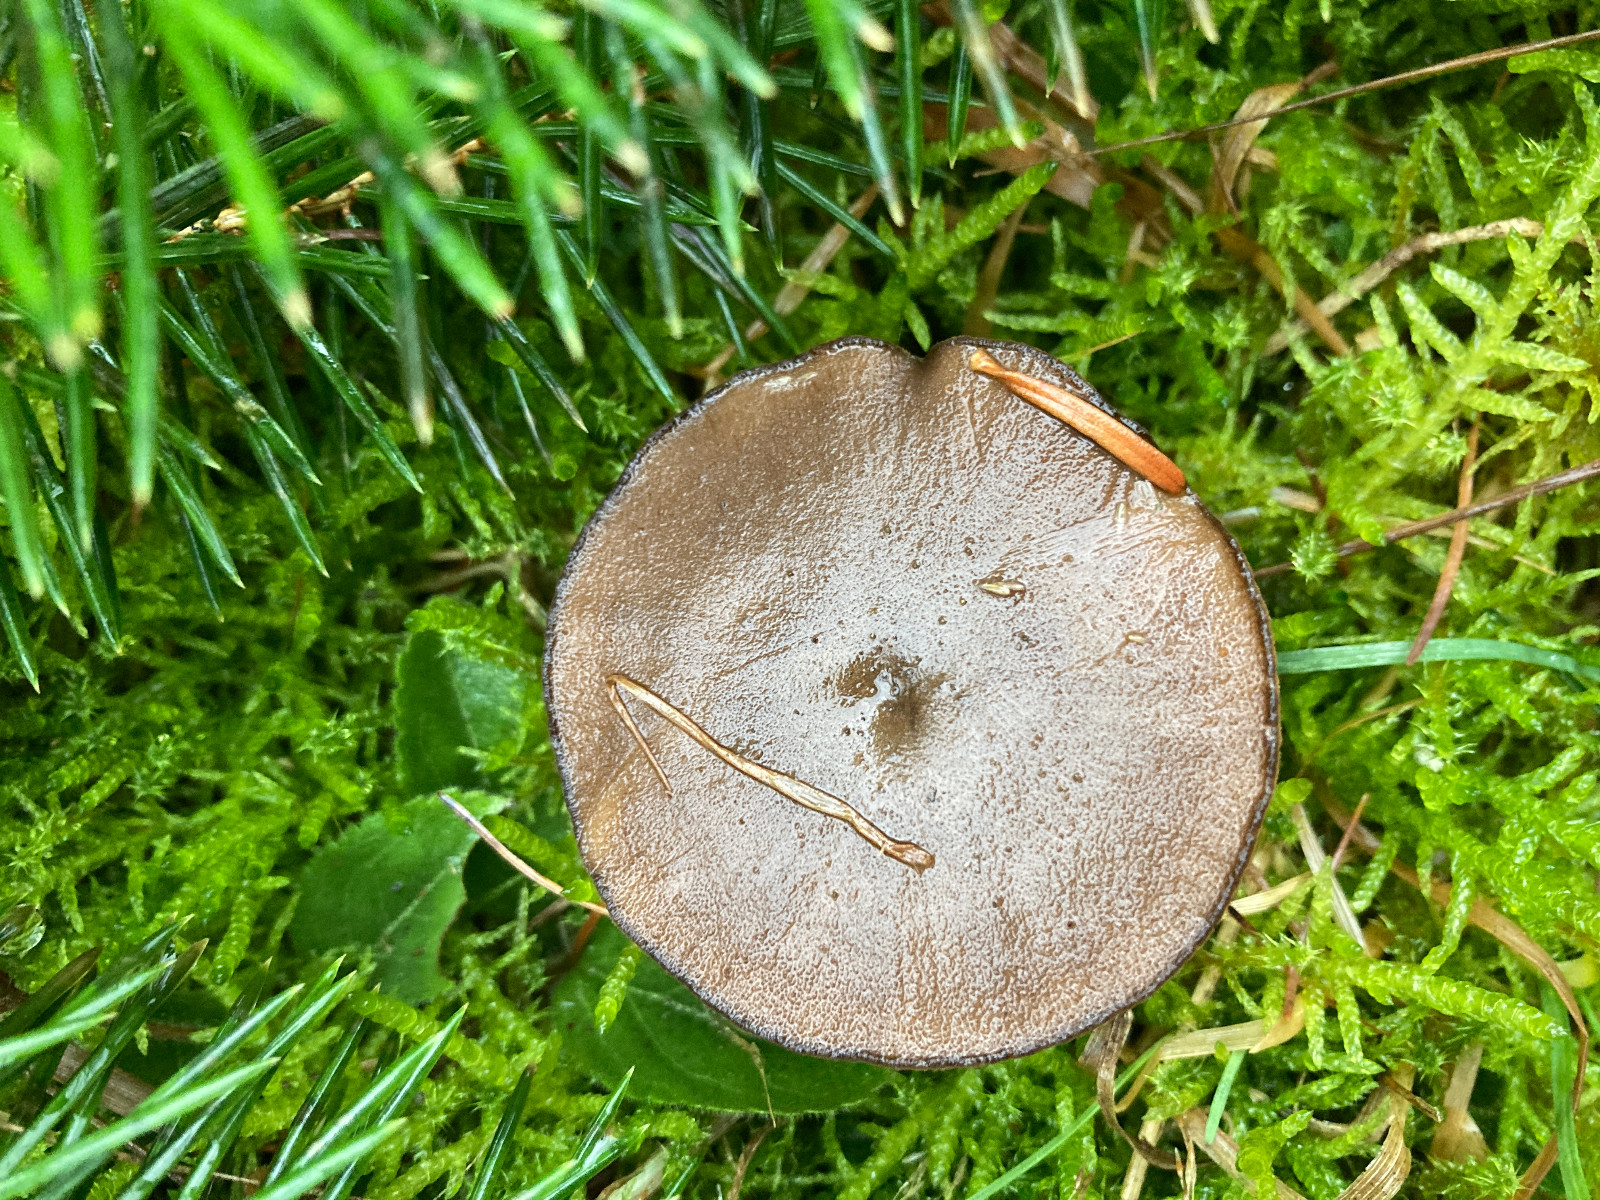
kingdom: Fungi
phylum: Basidiomycota
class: Agaricomycetes
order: Polyporales
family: Polyporaceae
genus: Lentinus
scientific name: Lentinus brumalis
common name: vinter-stilkporesvamp
